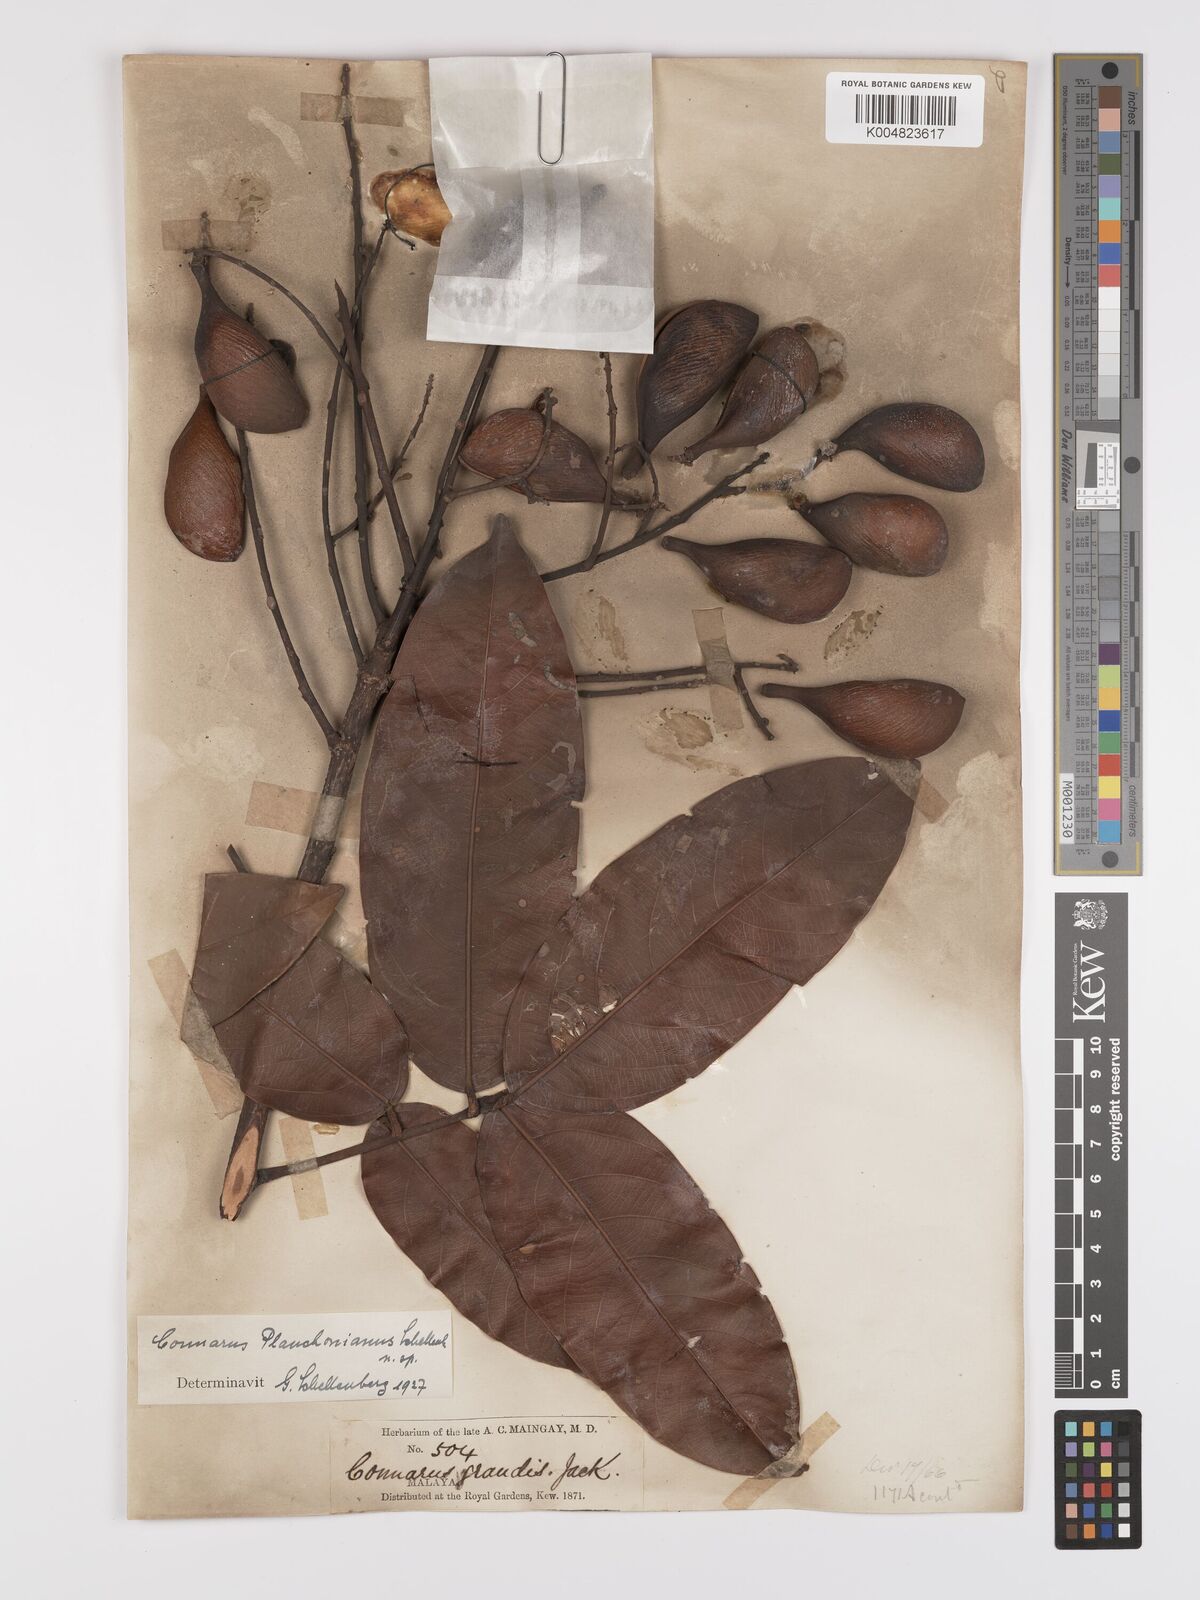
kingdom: Plantae
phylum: Tracheophyta
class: Magnoliopsida
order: Oxalidales
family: Connaraceae
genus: Connarus
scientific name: Connarus planchonianus
